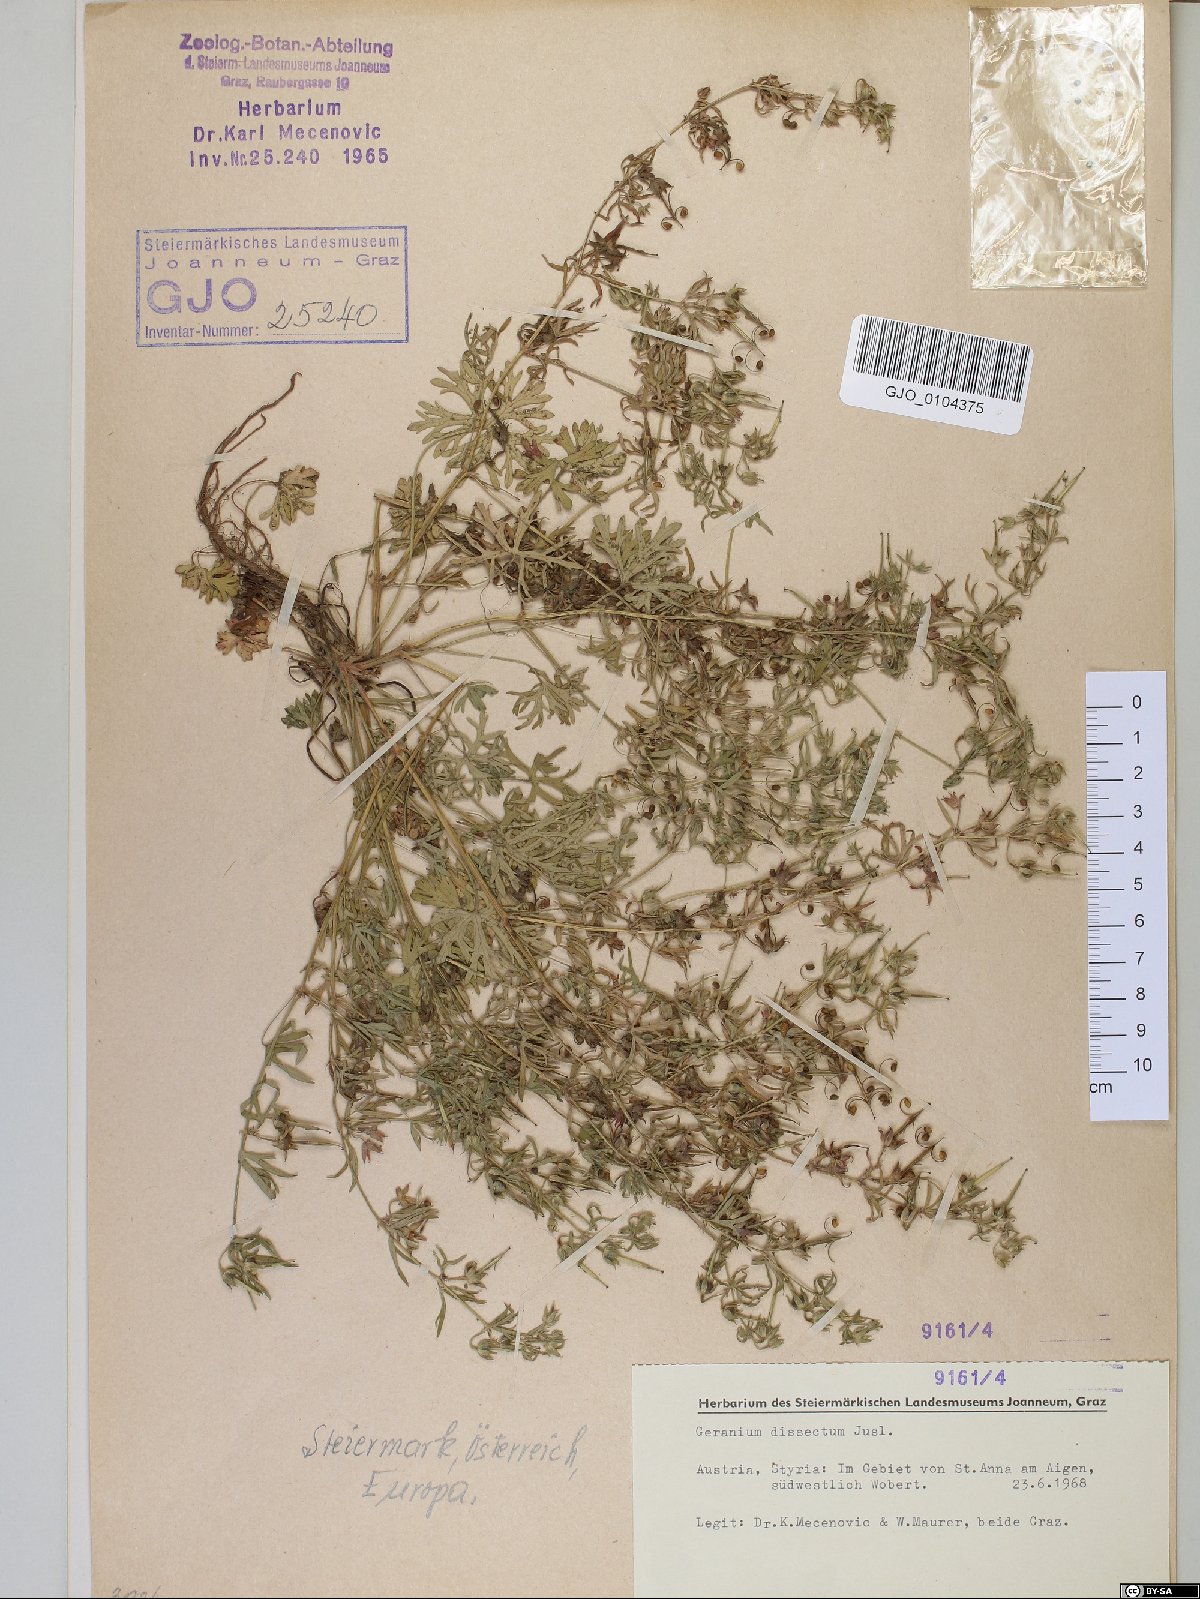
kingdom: Plantae
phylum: Tracheophyta
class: Magnoliopsida
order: Geraniales
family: Geraniaceae
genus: Geranium
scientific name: Geranium dissectum
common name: Cut-leaved crane's-bill
